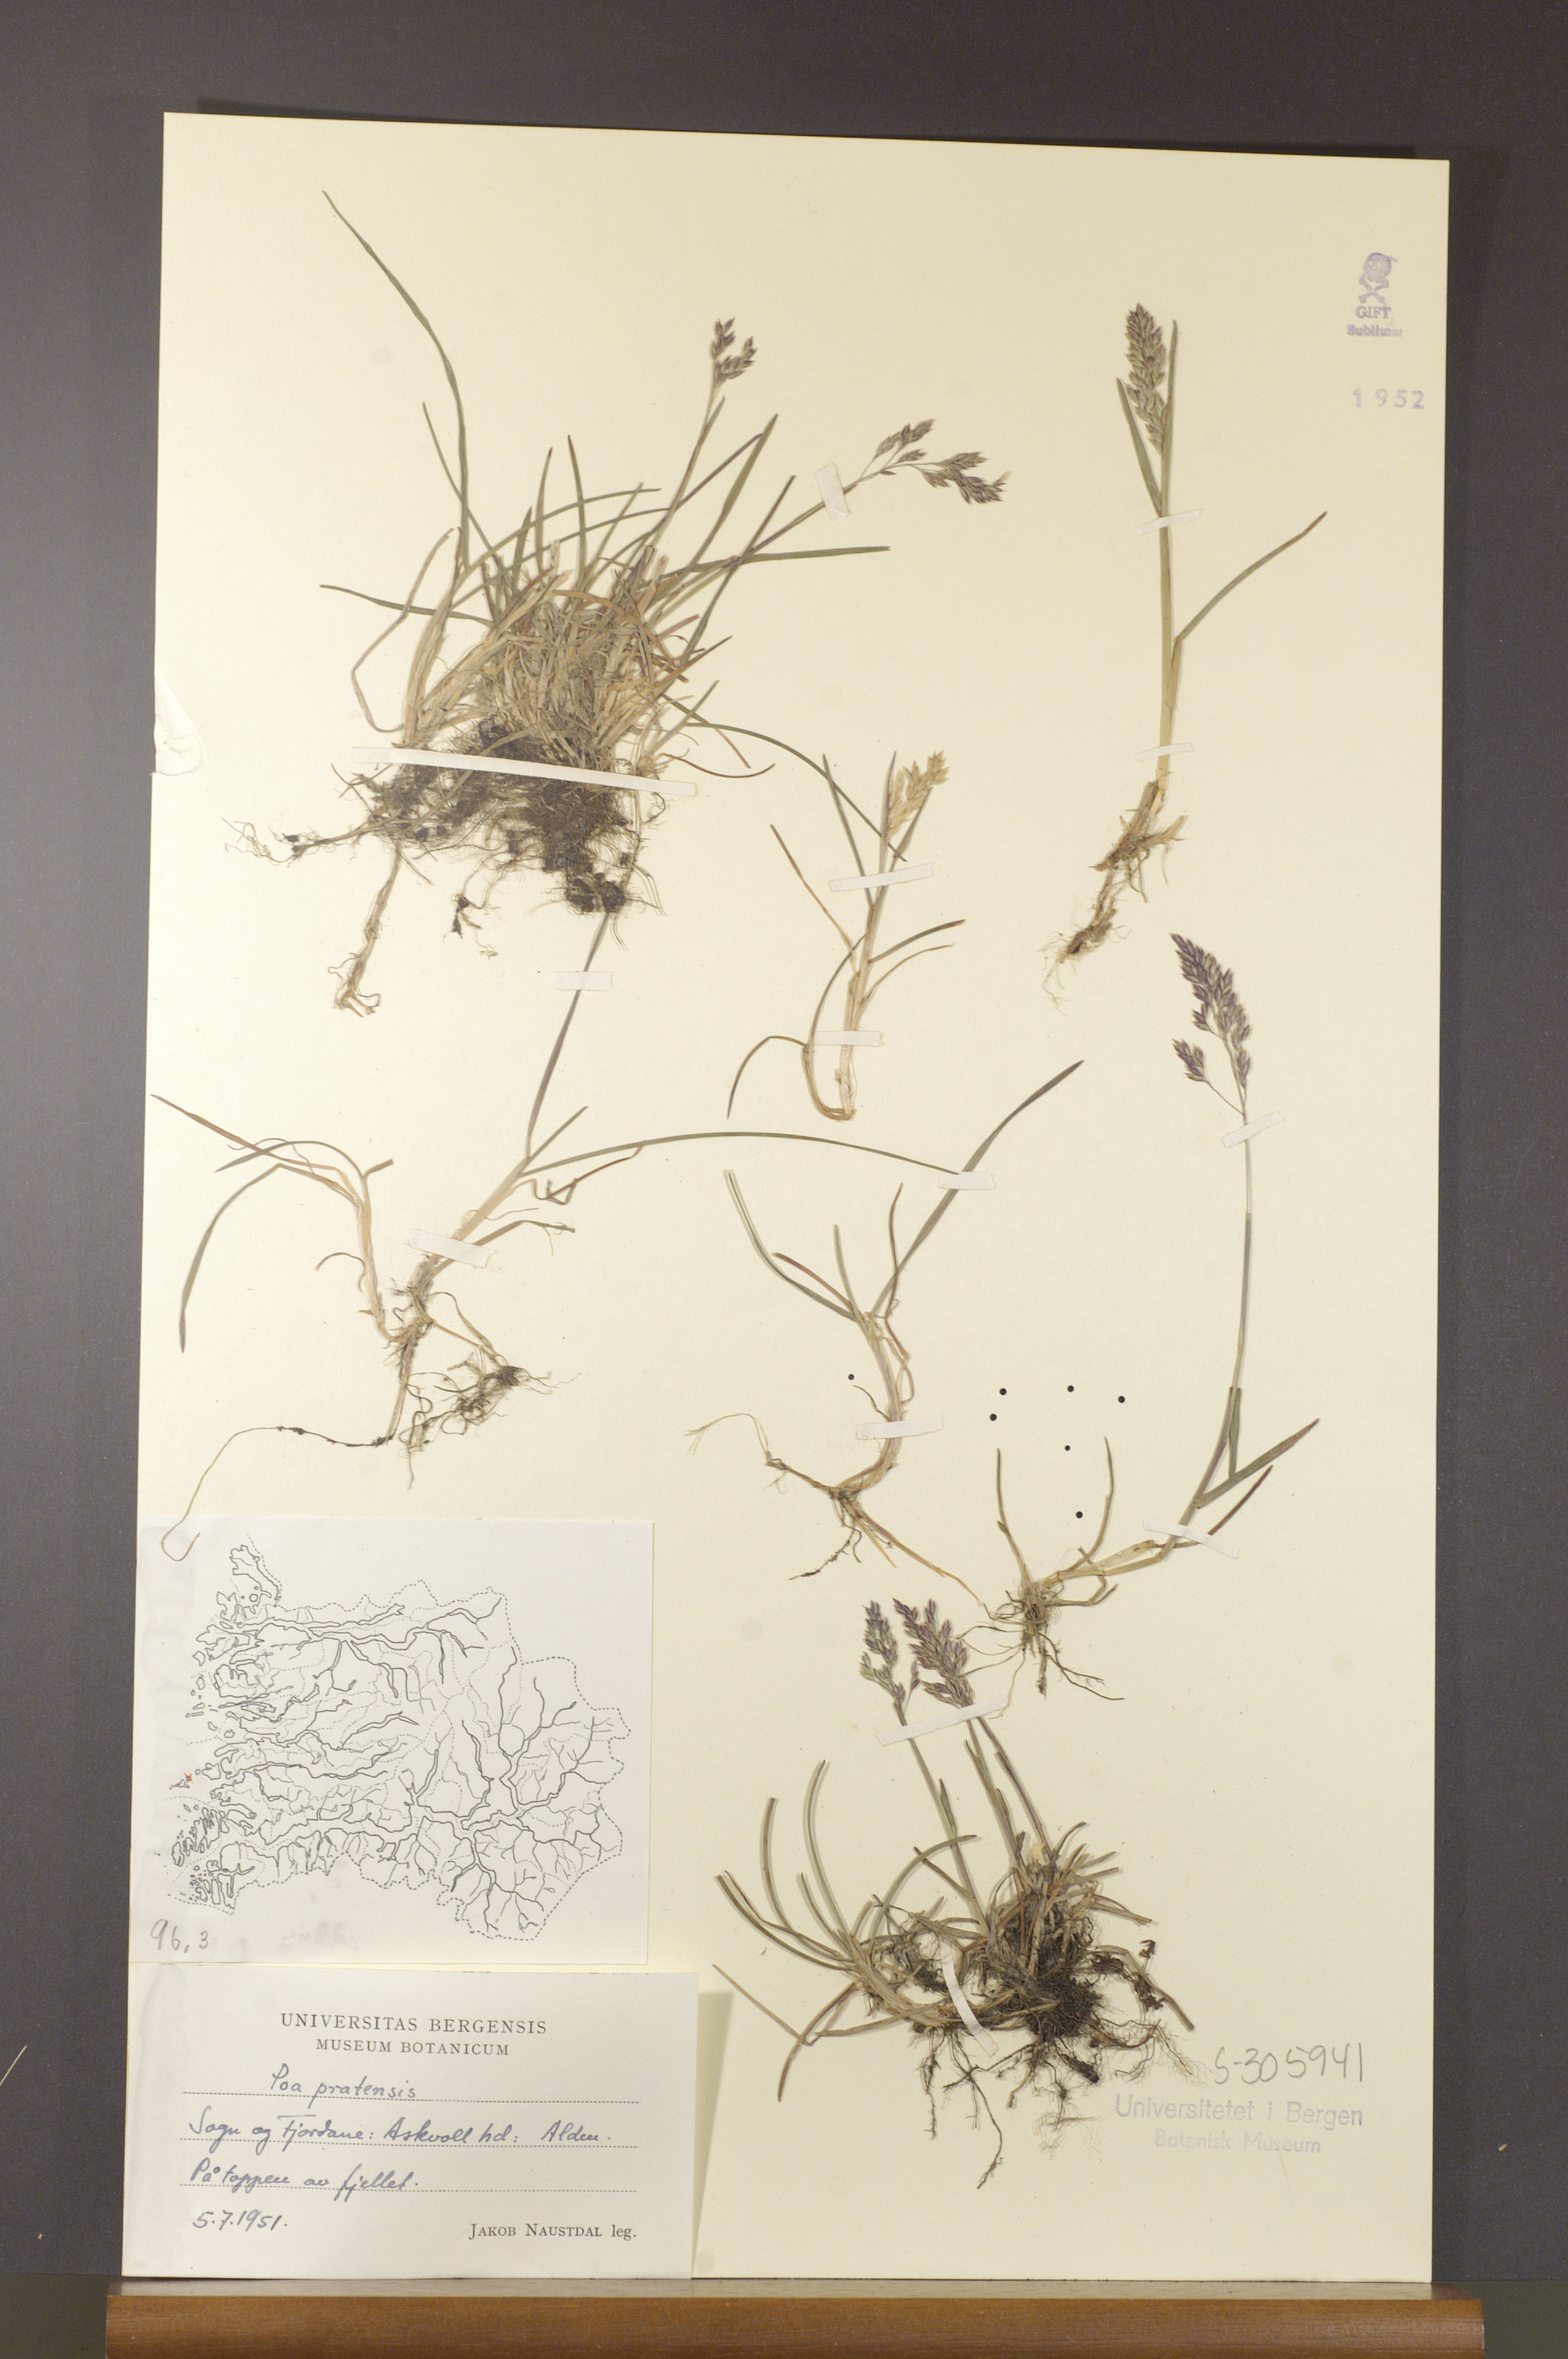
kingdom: Plantae
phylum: Tracheophyta
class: Liliopsida
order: Poales
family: Poaceae
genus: Poa
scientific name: Poa pratensis
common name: Kentucky bluegrass
